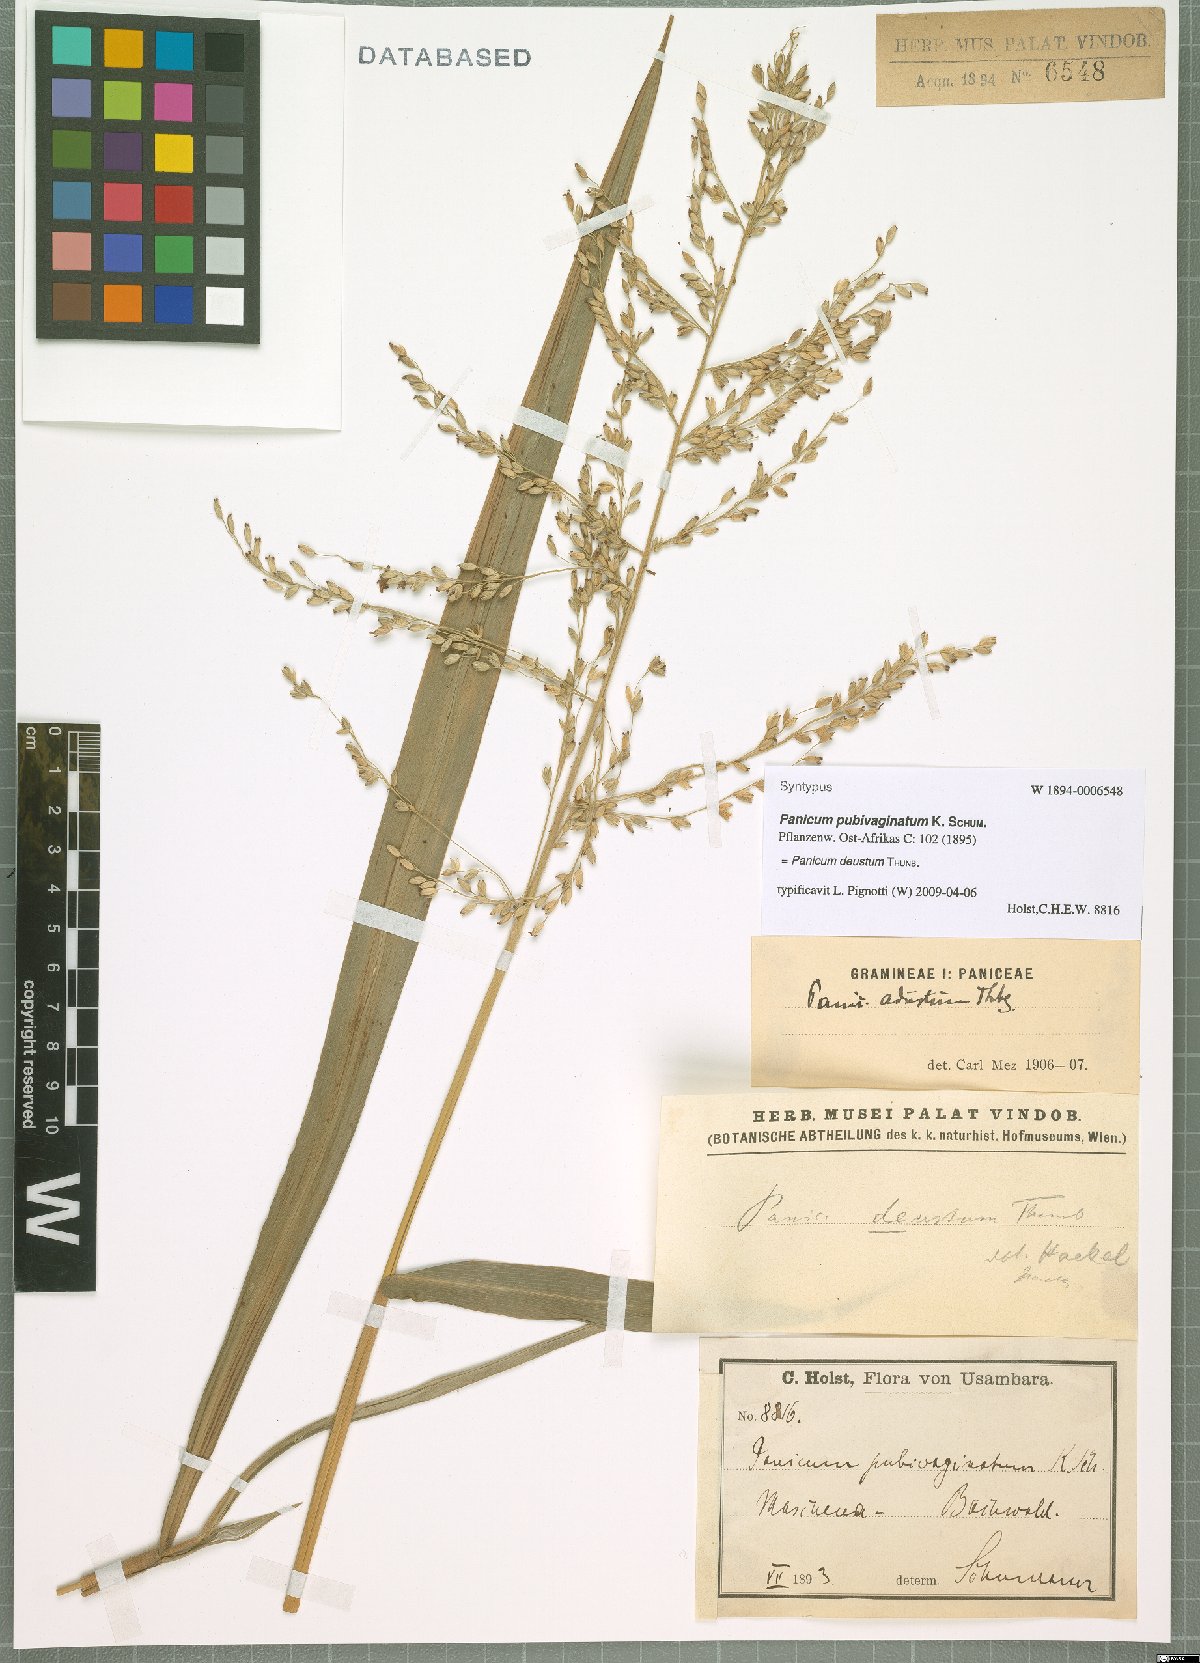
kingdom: Plantae
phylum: Tracheophyta
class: Liliopsida
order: Poales
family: Poaceae
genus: Panicum
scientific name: Panicum deustum
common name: Reed panicum
